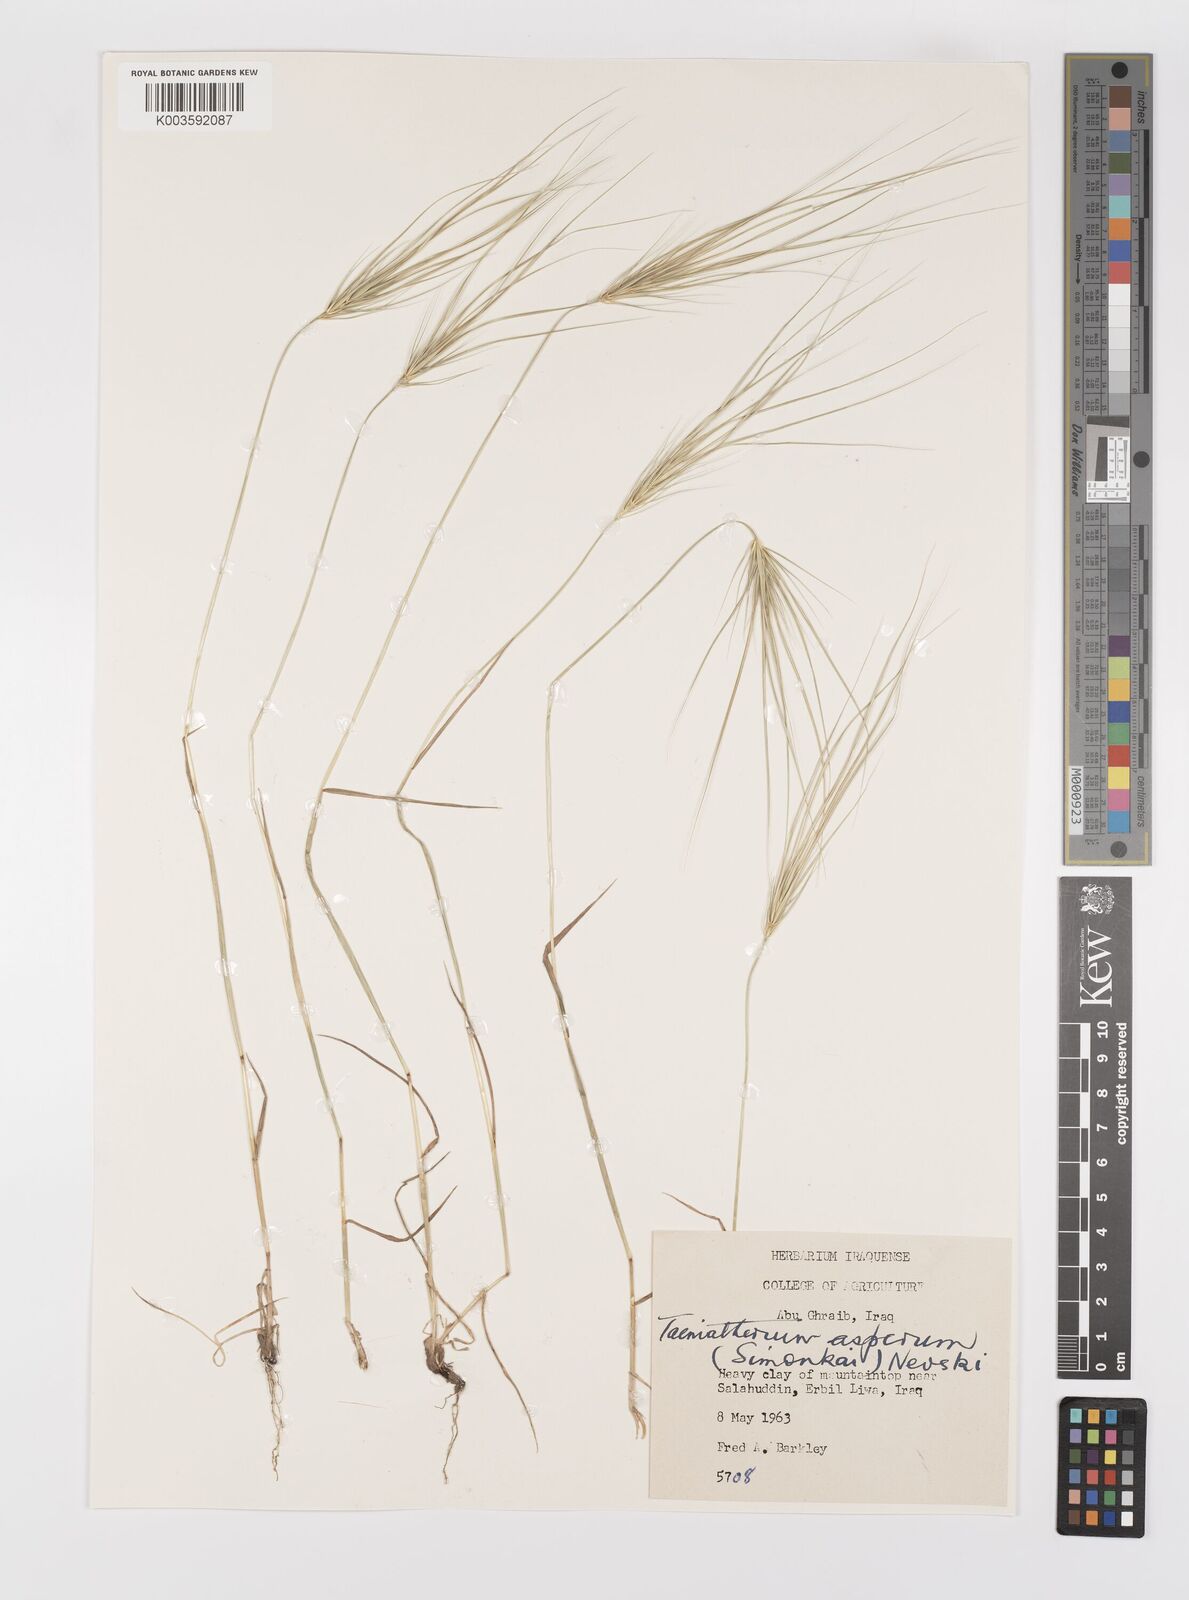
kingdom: Plantae
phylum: Tracheophyta
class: Liliopsida
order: Poales
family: Poaceae
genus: Taeniatherum
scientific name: Taeniatherum caput-medusae
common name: Medusahead
